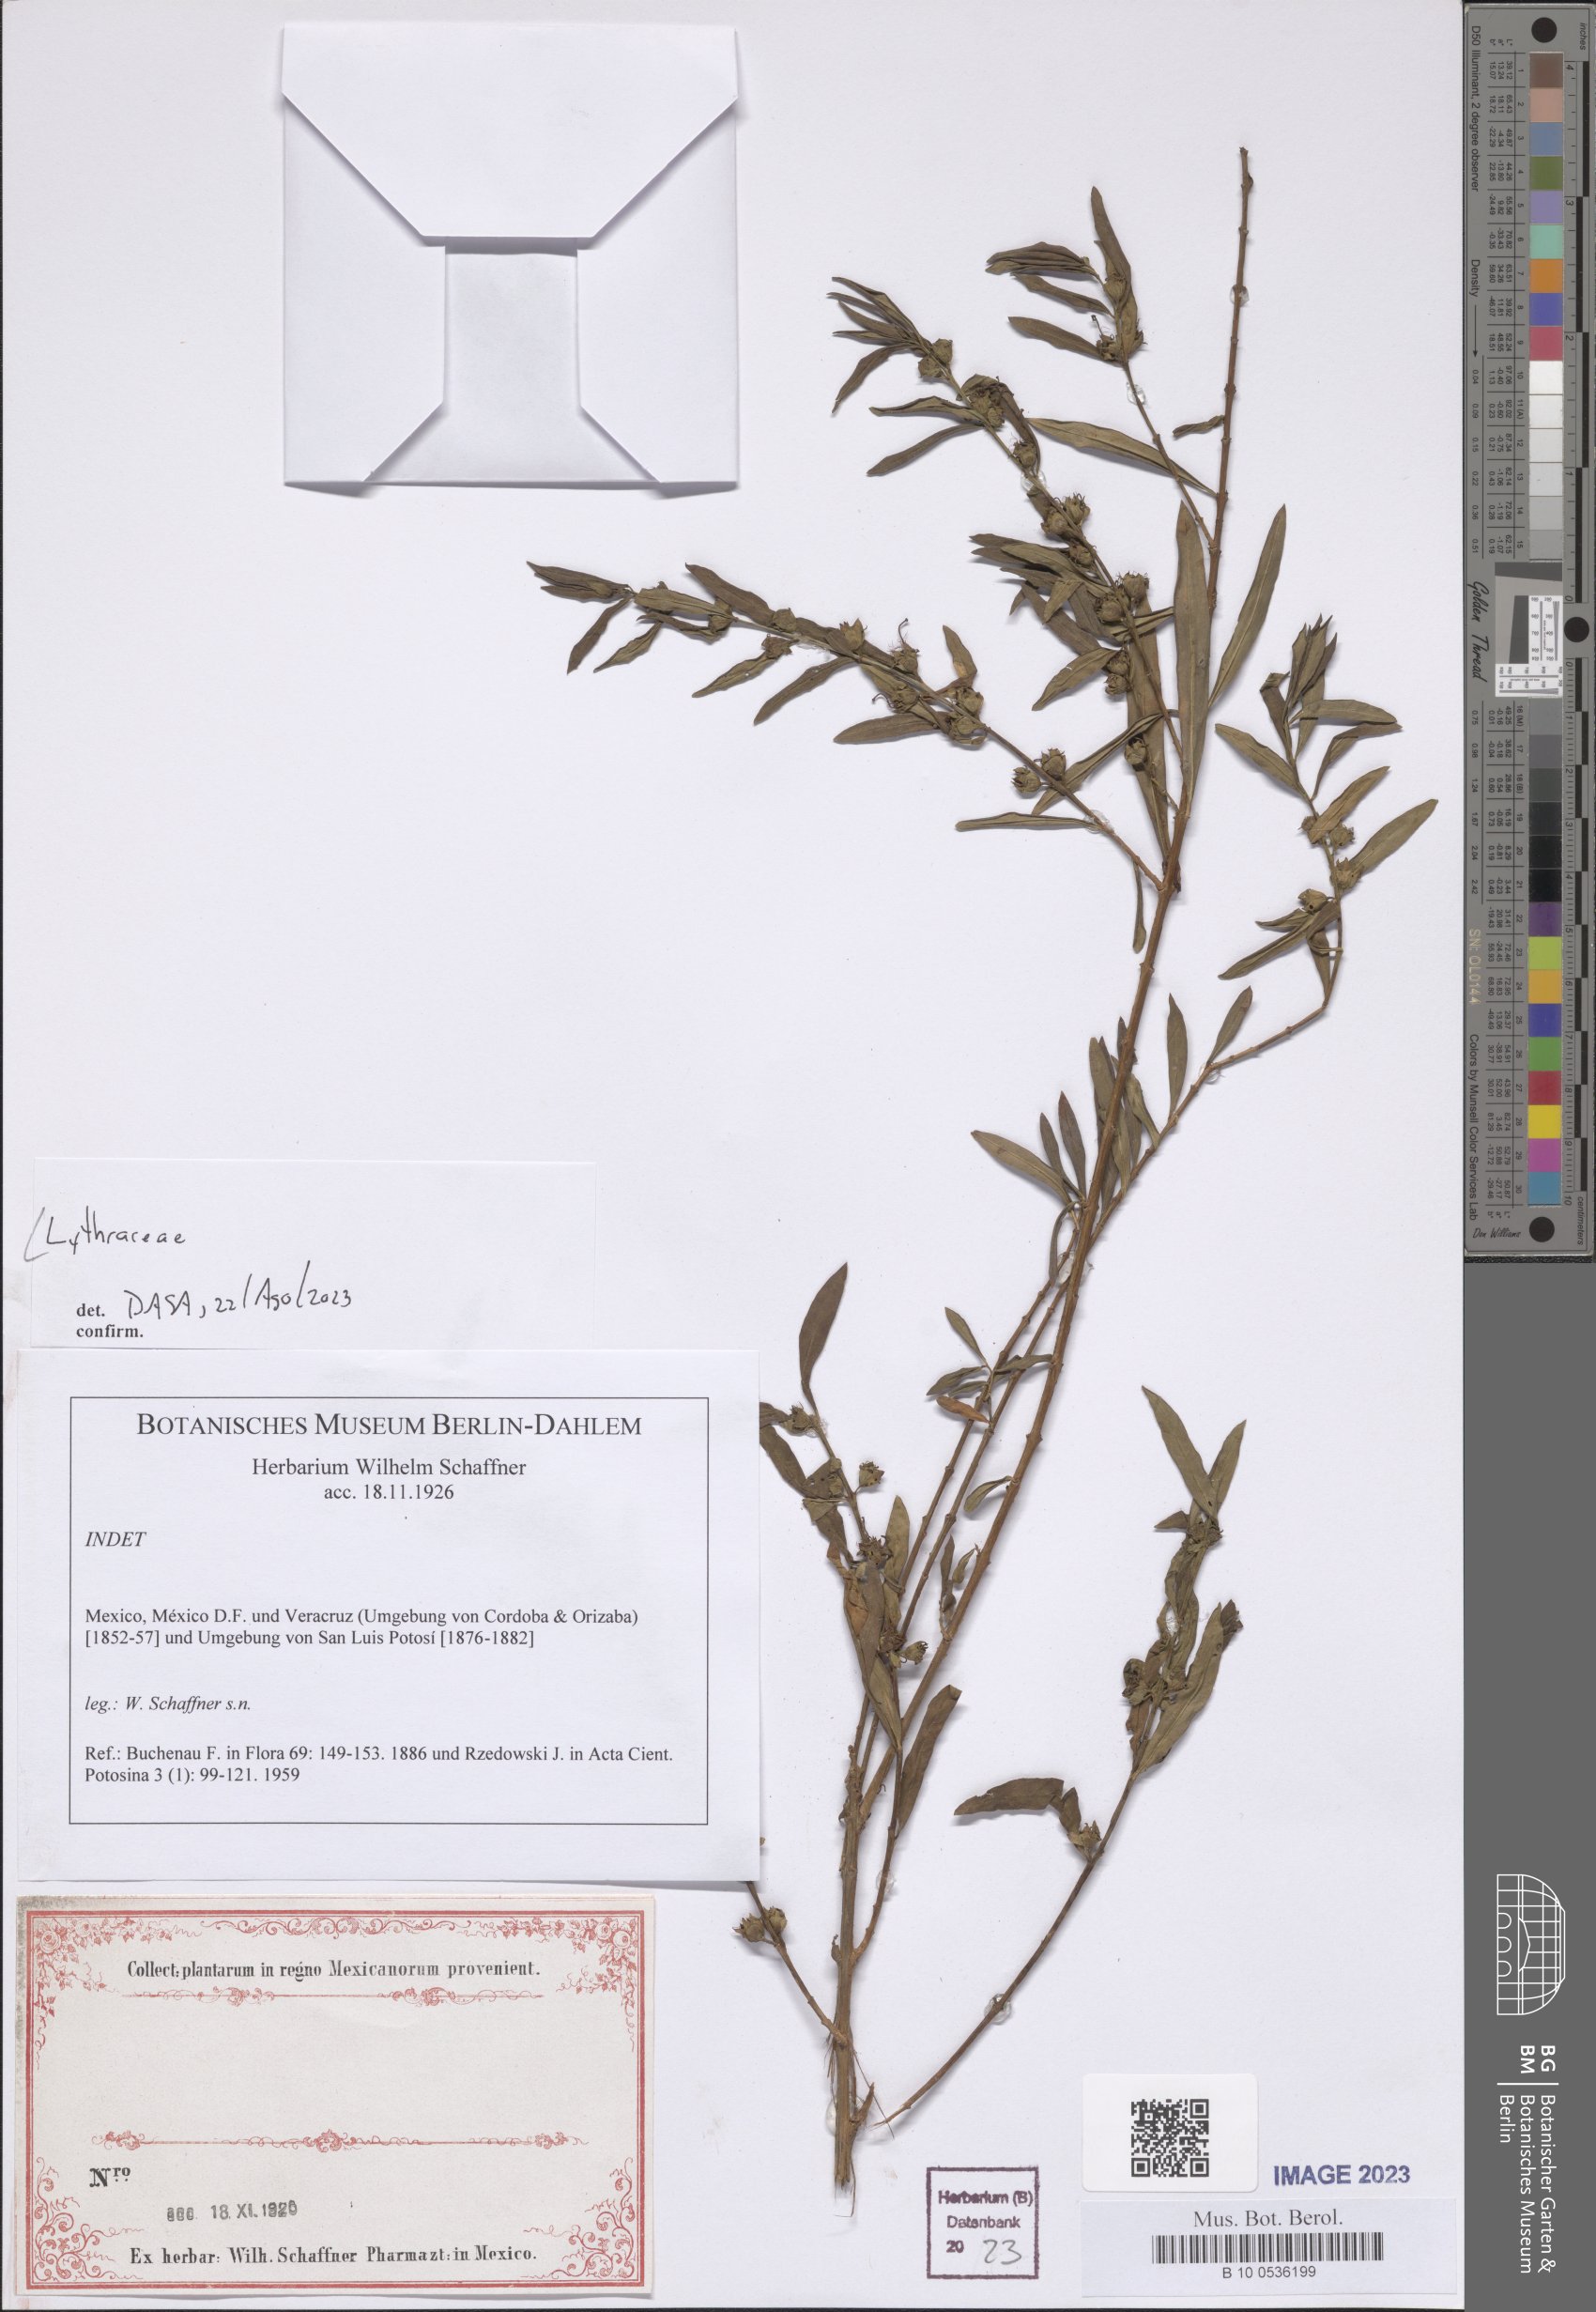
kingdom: Plantae
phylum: Tracheophyta
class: Magnoliopsida
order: Myrtales
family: Lythraceae
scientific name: Lythraceae
